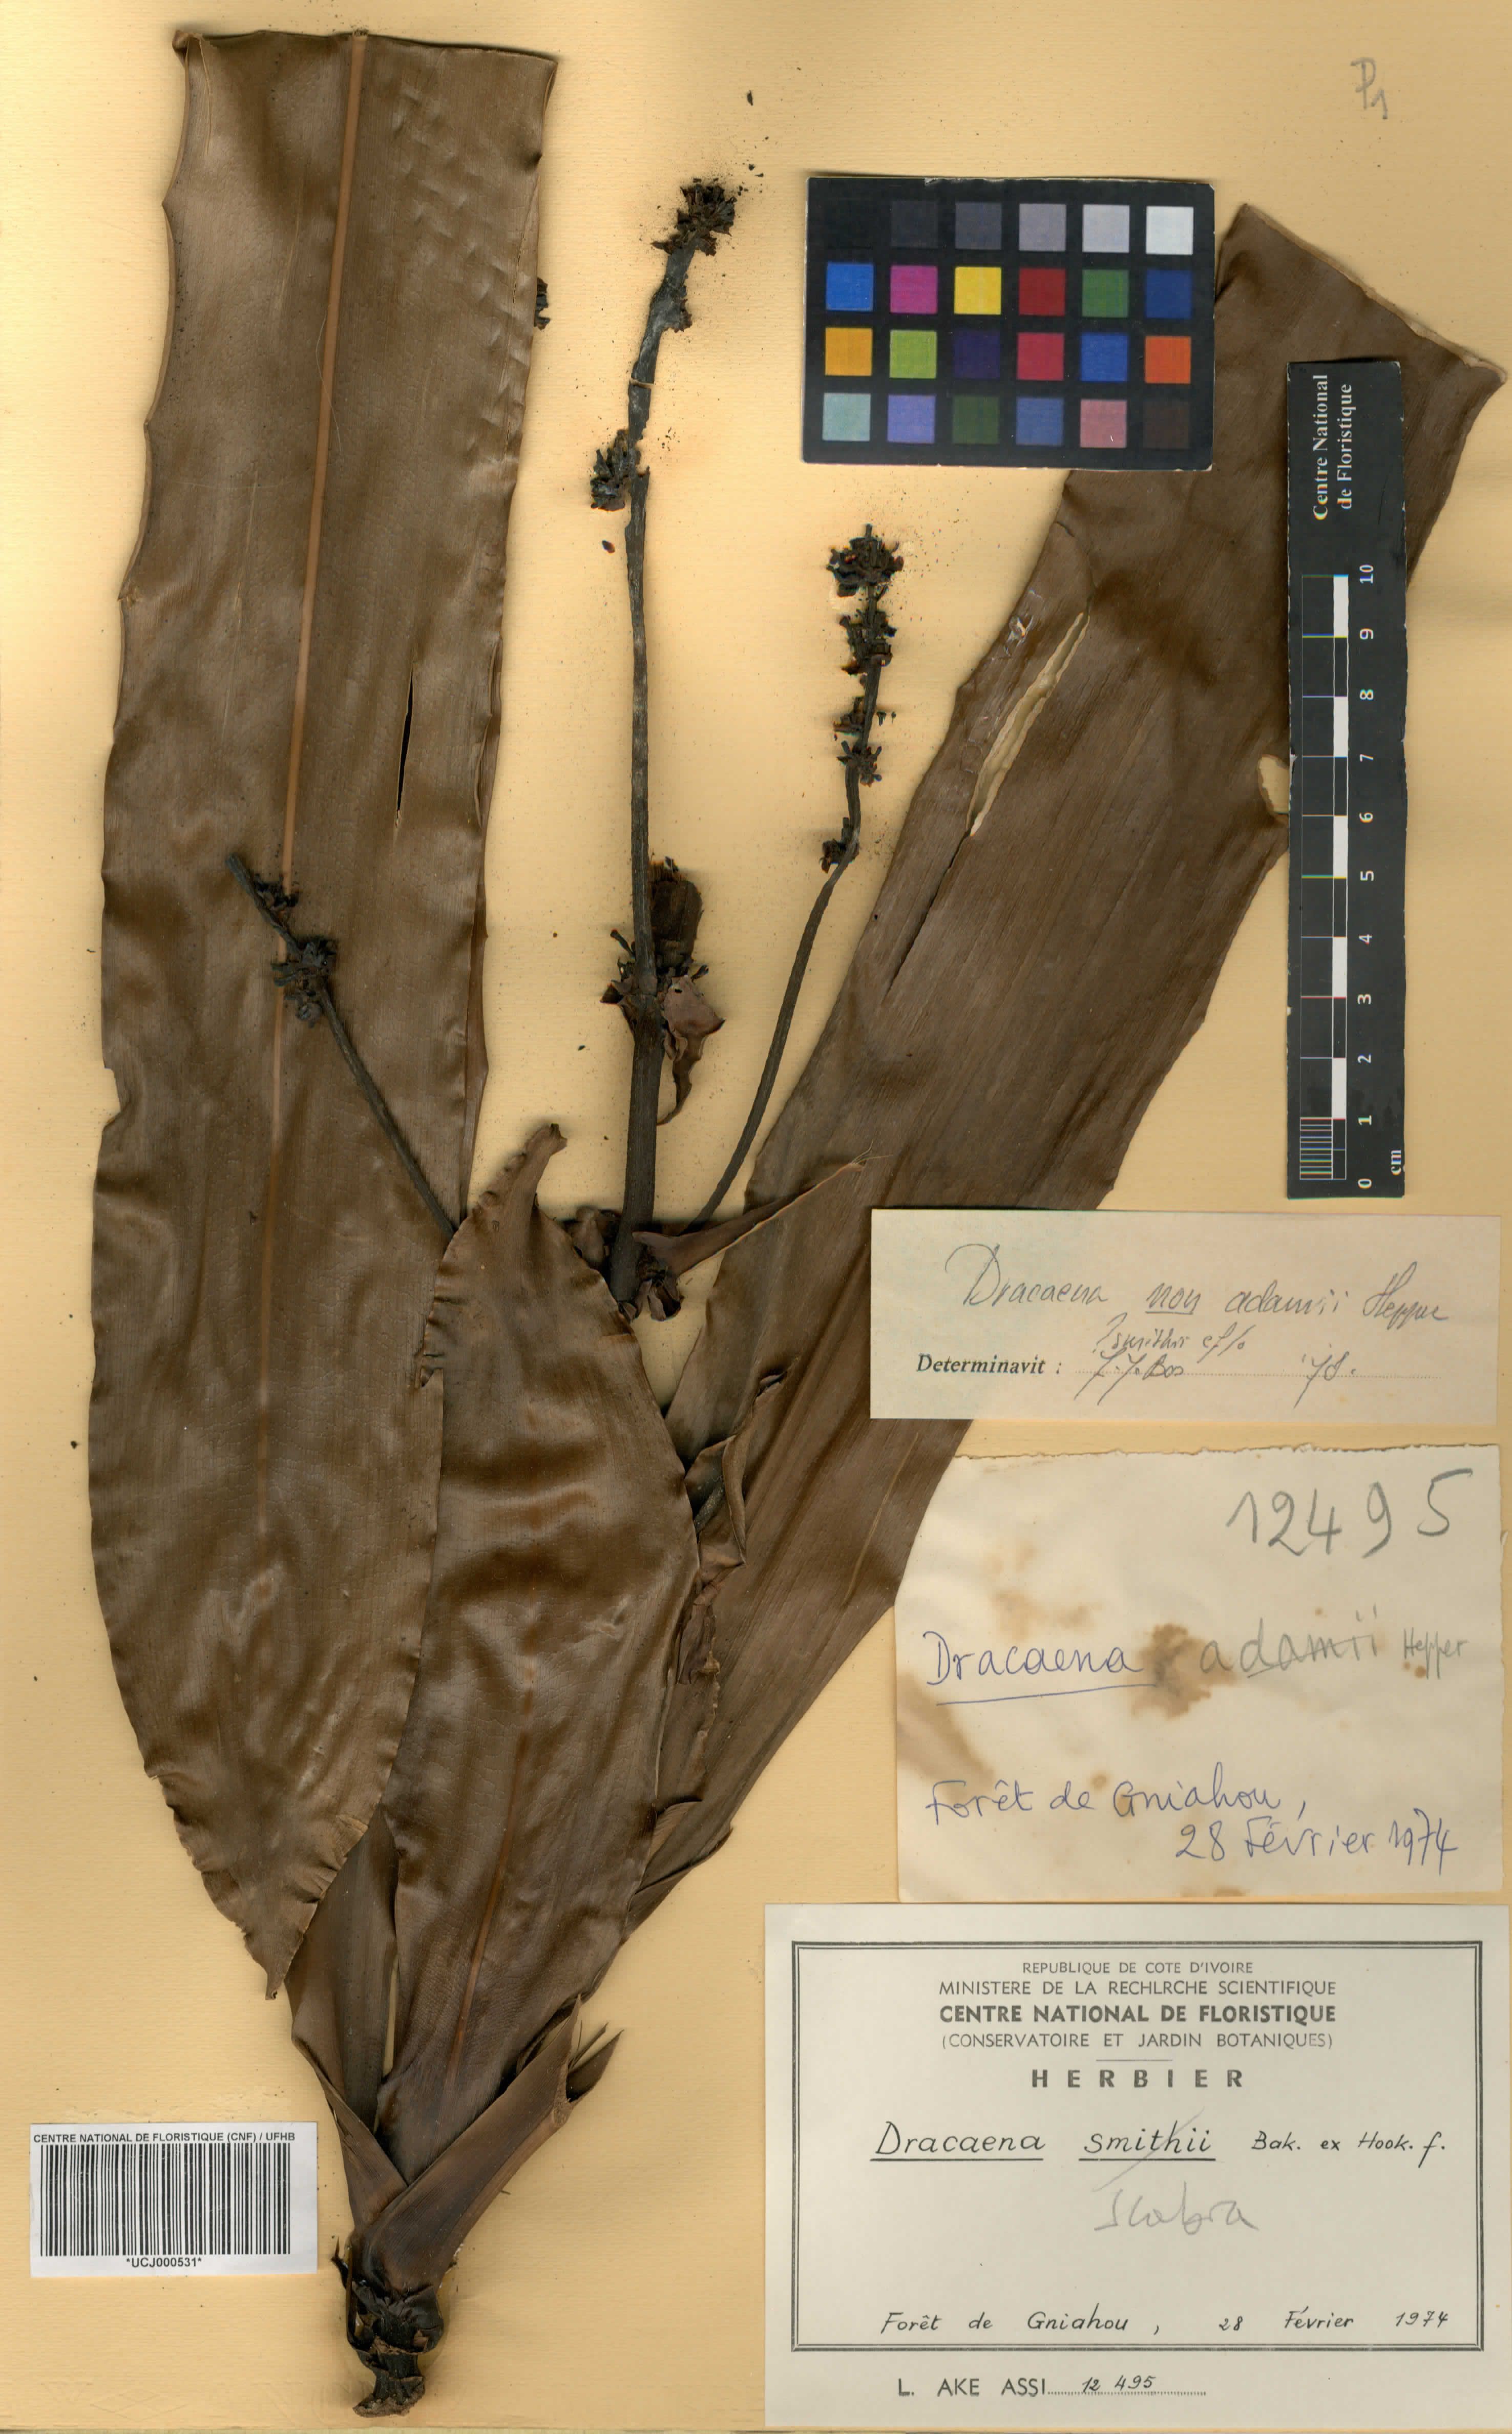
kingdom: Plantae
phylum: Tracheophyta
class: Liliopsida
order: Asparagales
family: Asparagaceae
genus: Dracaena
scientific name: Dracaena fragrans
